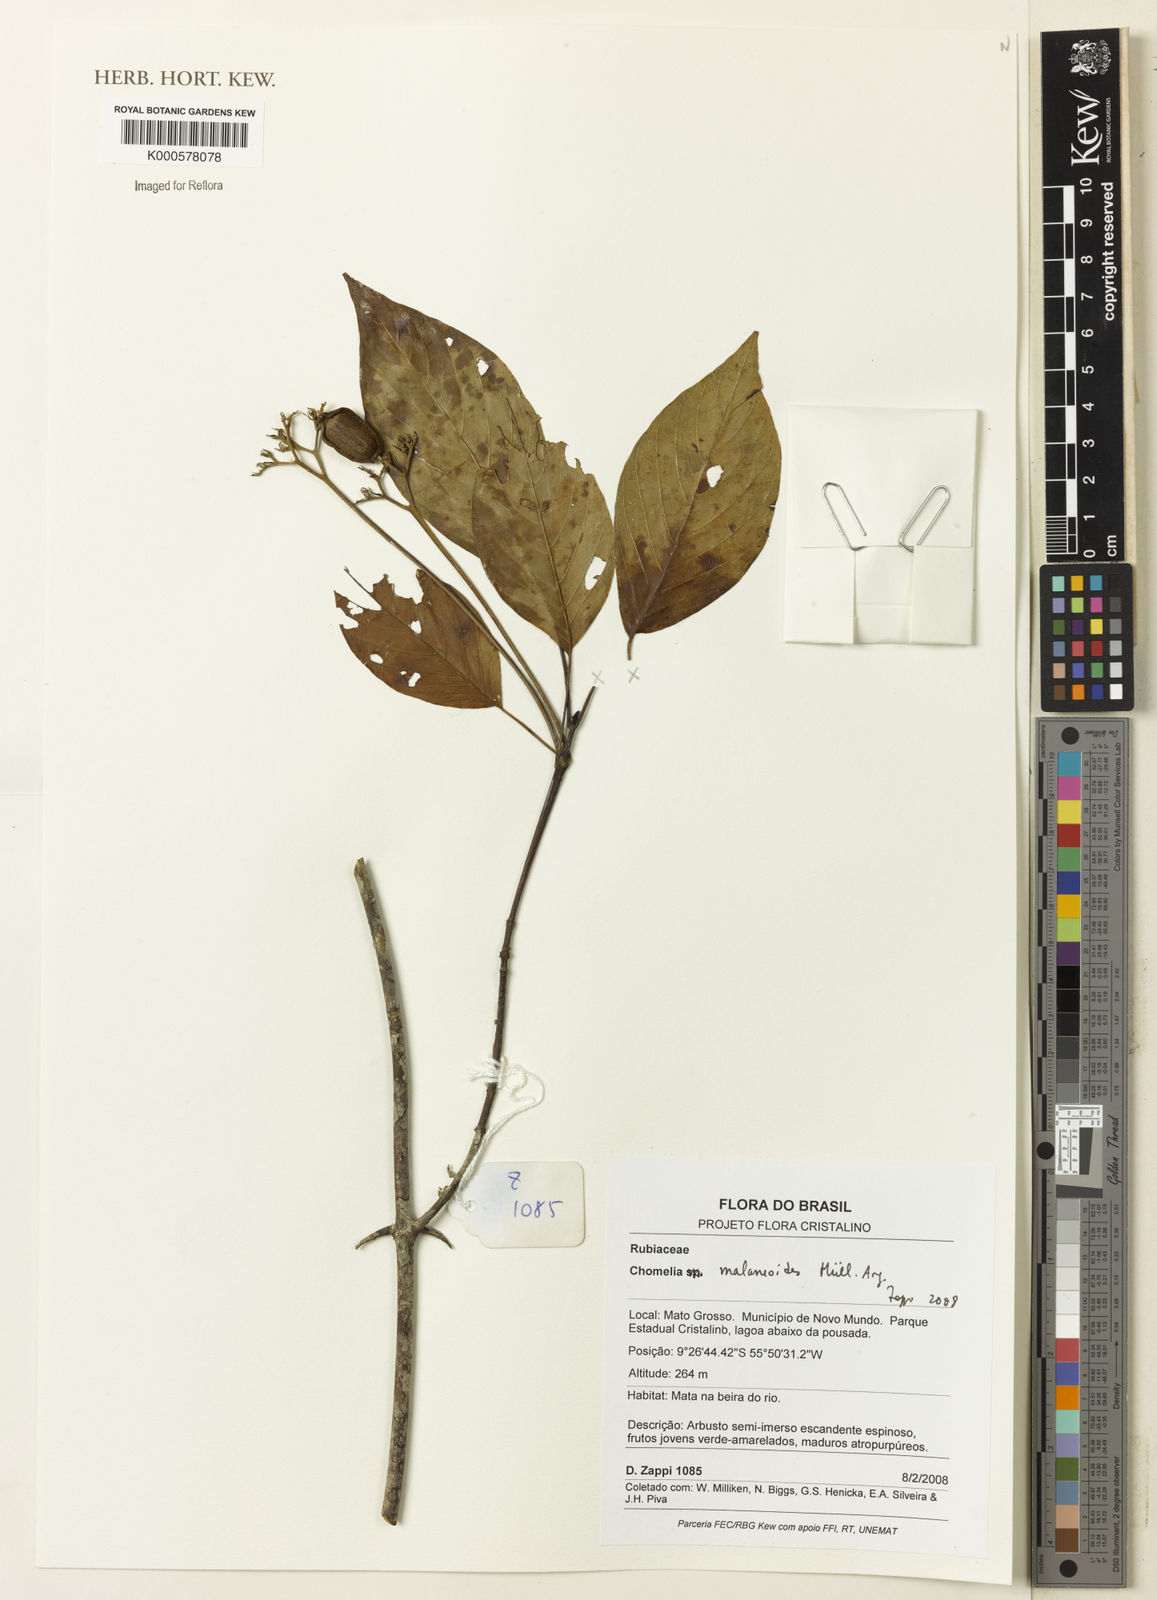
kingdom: Plantae
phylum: Tracheophyta
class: Magnoliopsida
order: Gentianales
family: Rubiaceae
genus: Chomelia
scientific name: Chomelia
